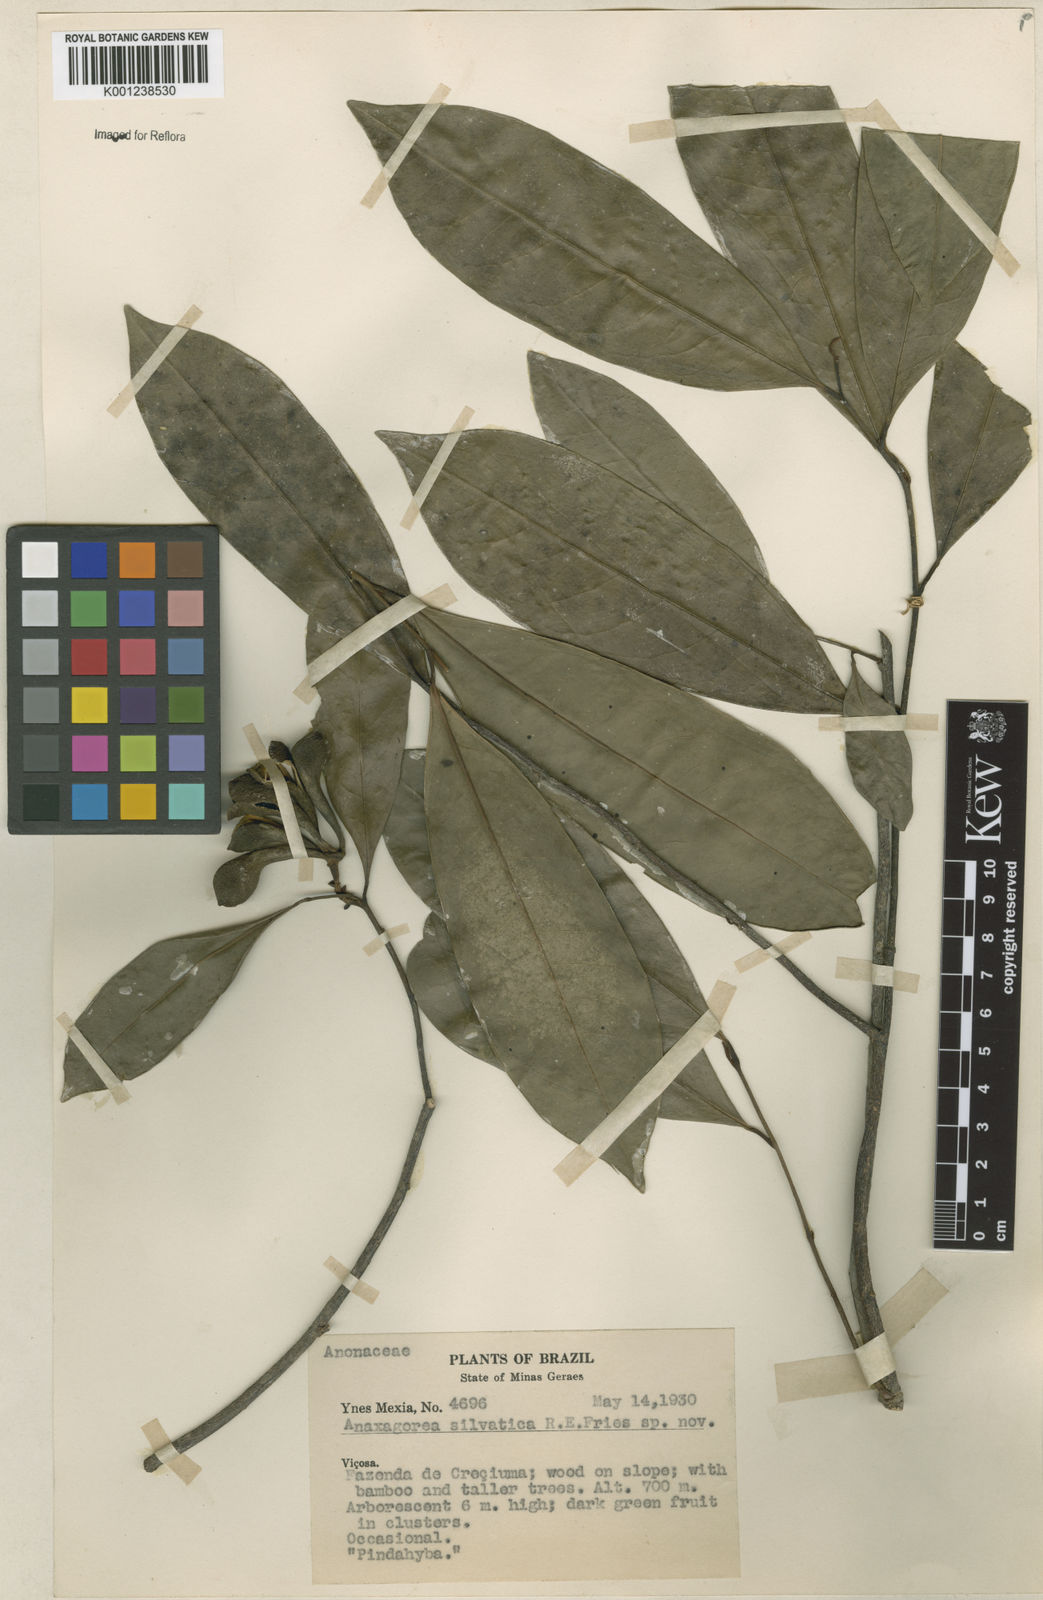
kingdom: Plantae
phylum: Tracheophyta
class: Magnoliopsida
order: Magnoliales
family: Annonaceae
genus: Anaxagorea
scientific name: Anaxagorea silvatica
